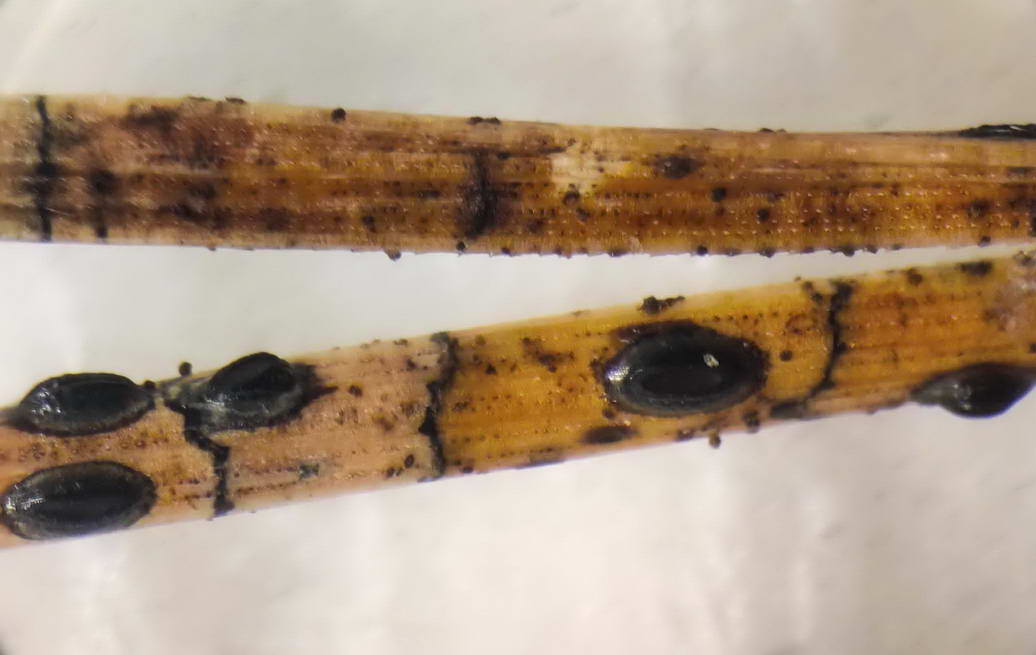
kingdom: Fungi
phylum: Ascomycota
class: Leotiomycetes
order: Rhytismatales
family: Rhytismataceae
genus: Lophodermium
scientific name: Lophodermium pinastri
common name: fyrre-fureplet
